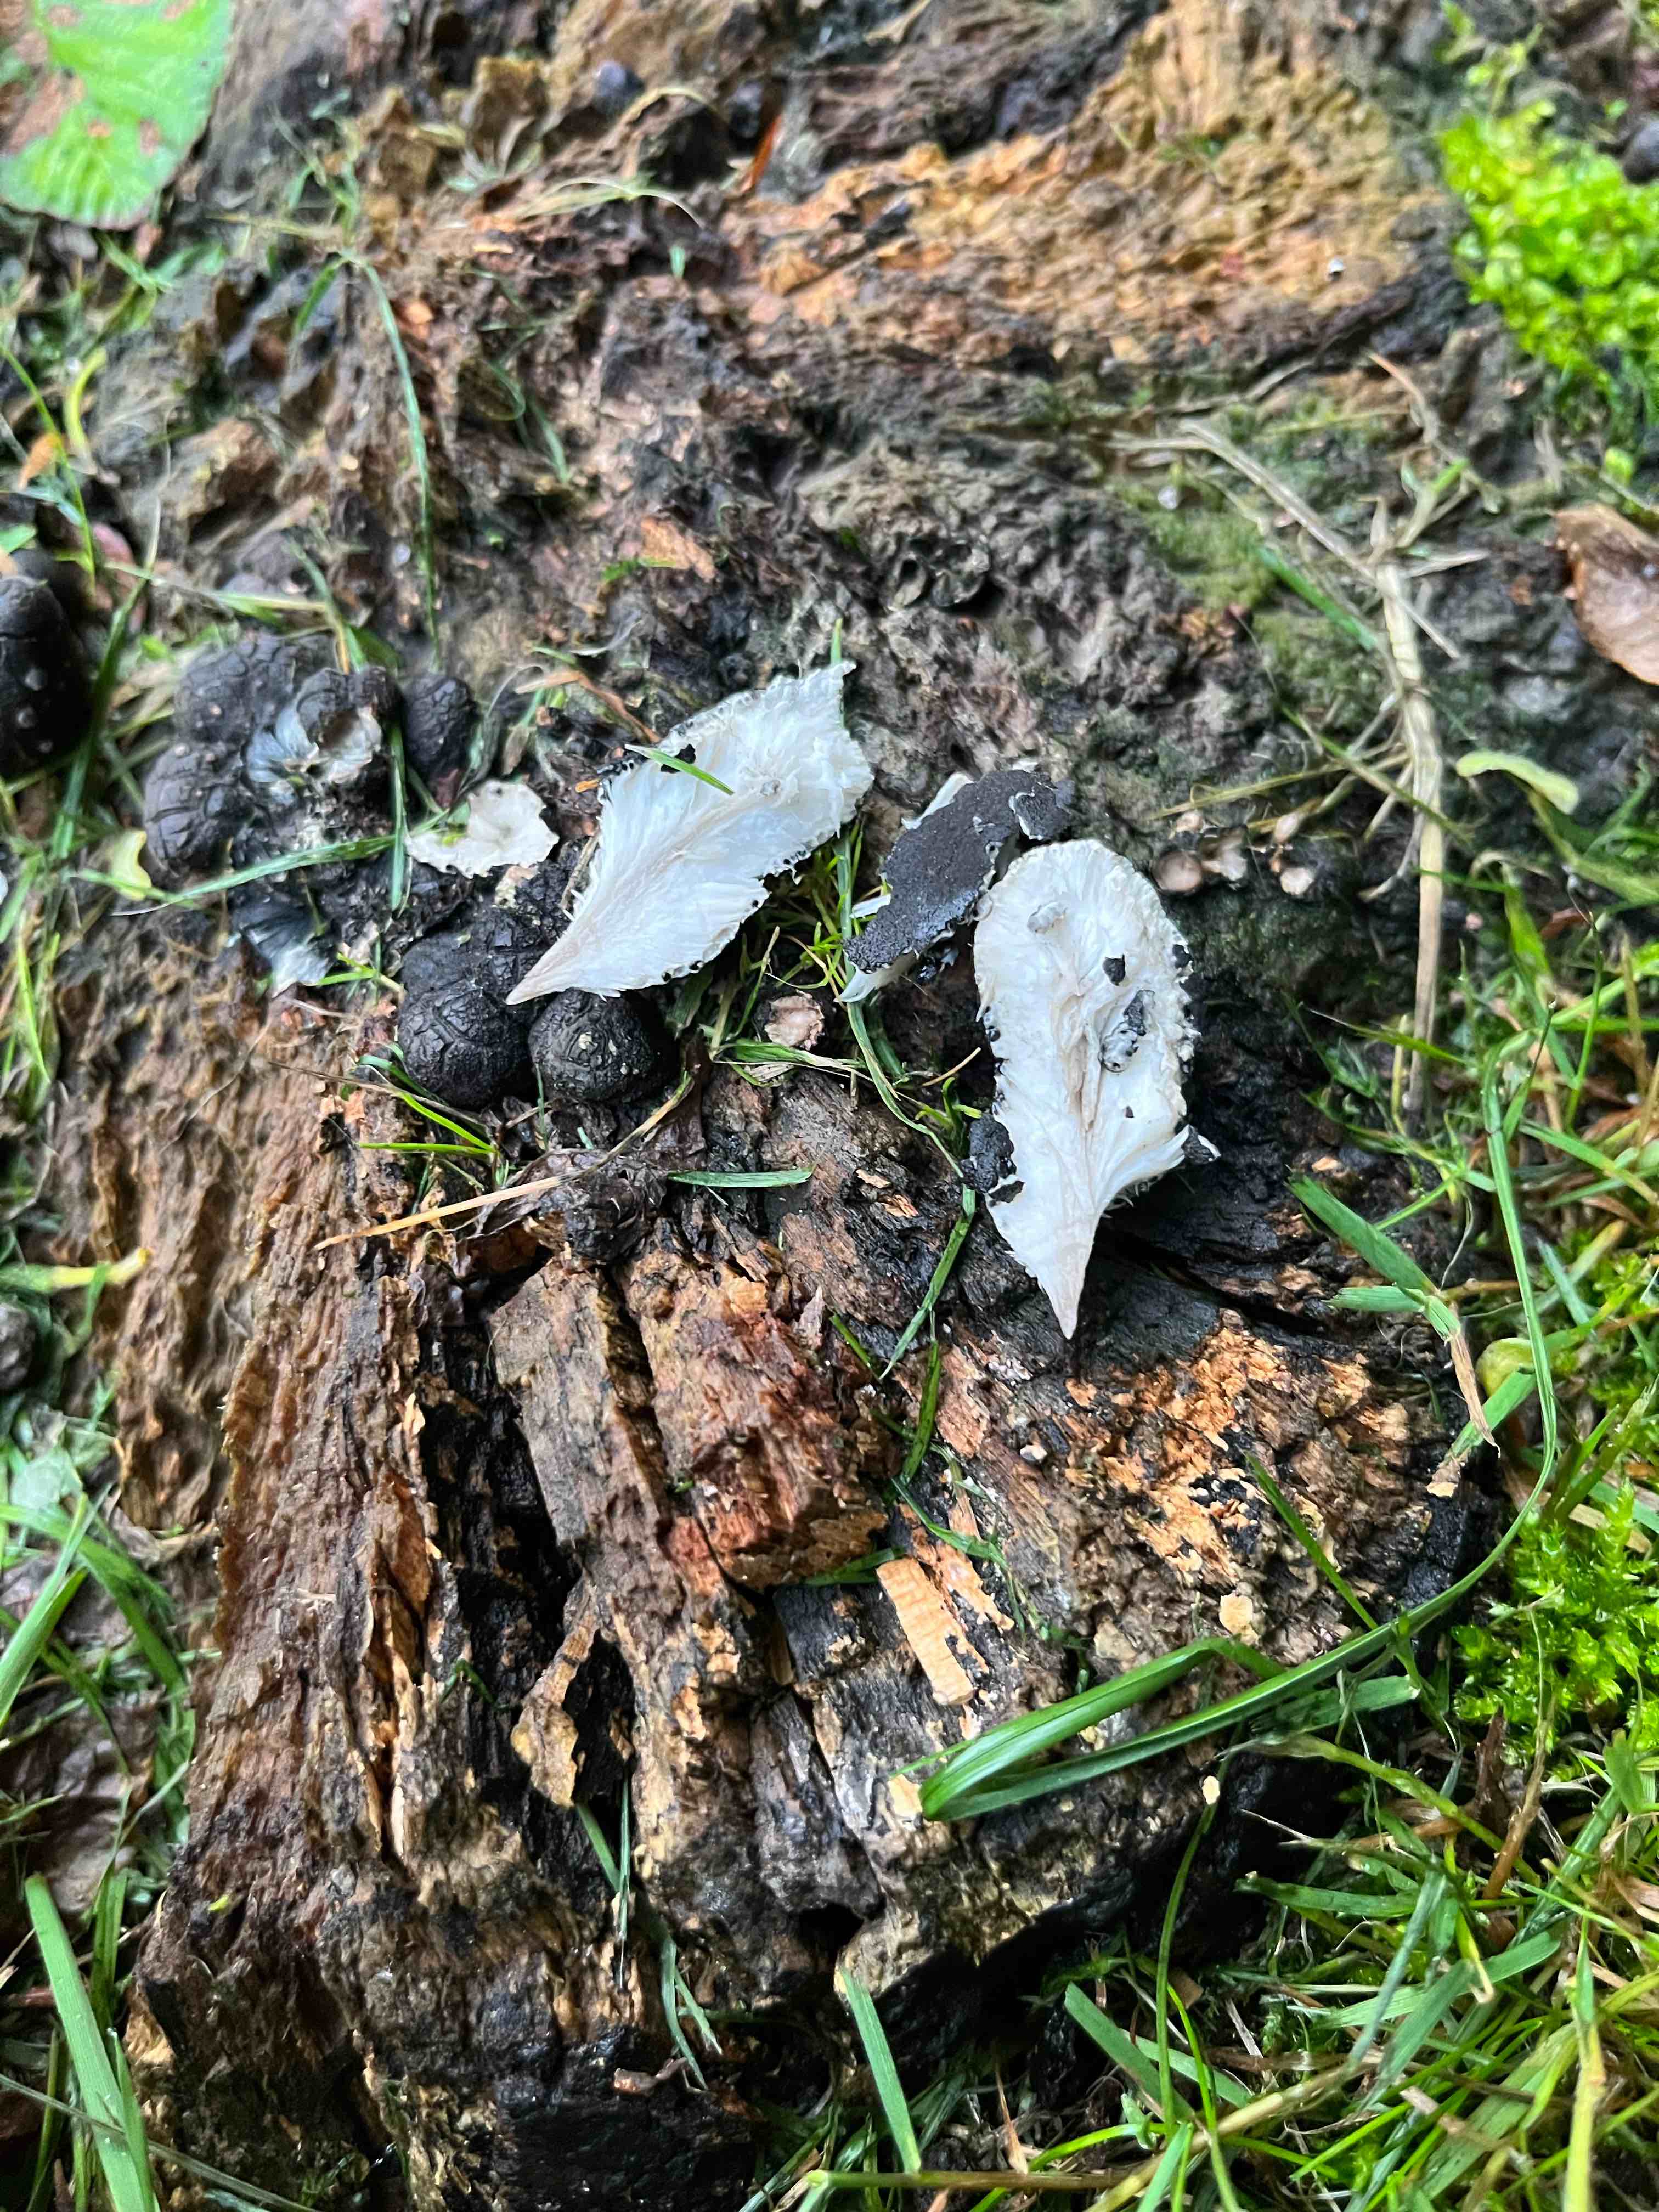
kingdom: Fungi
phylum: Ascomycota
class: Sordariomycetes
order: Xylariales
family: Xylariaceae
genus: Xylaria
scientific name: Xylaria polymorpha
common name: kølle-stødsvamp
